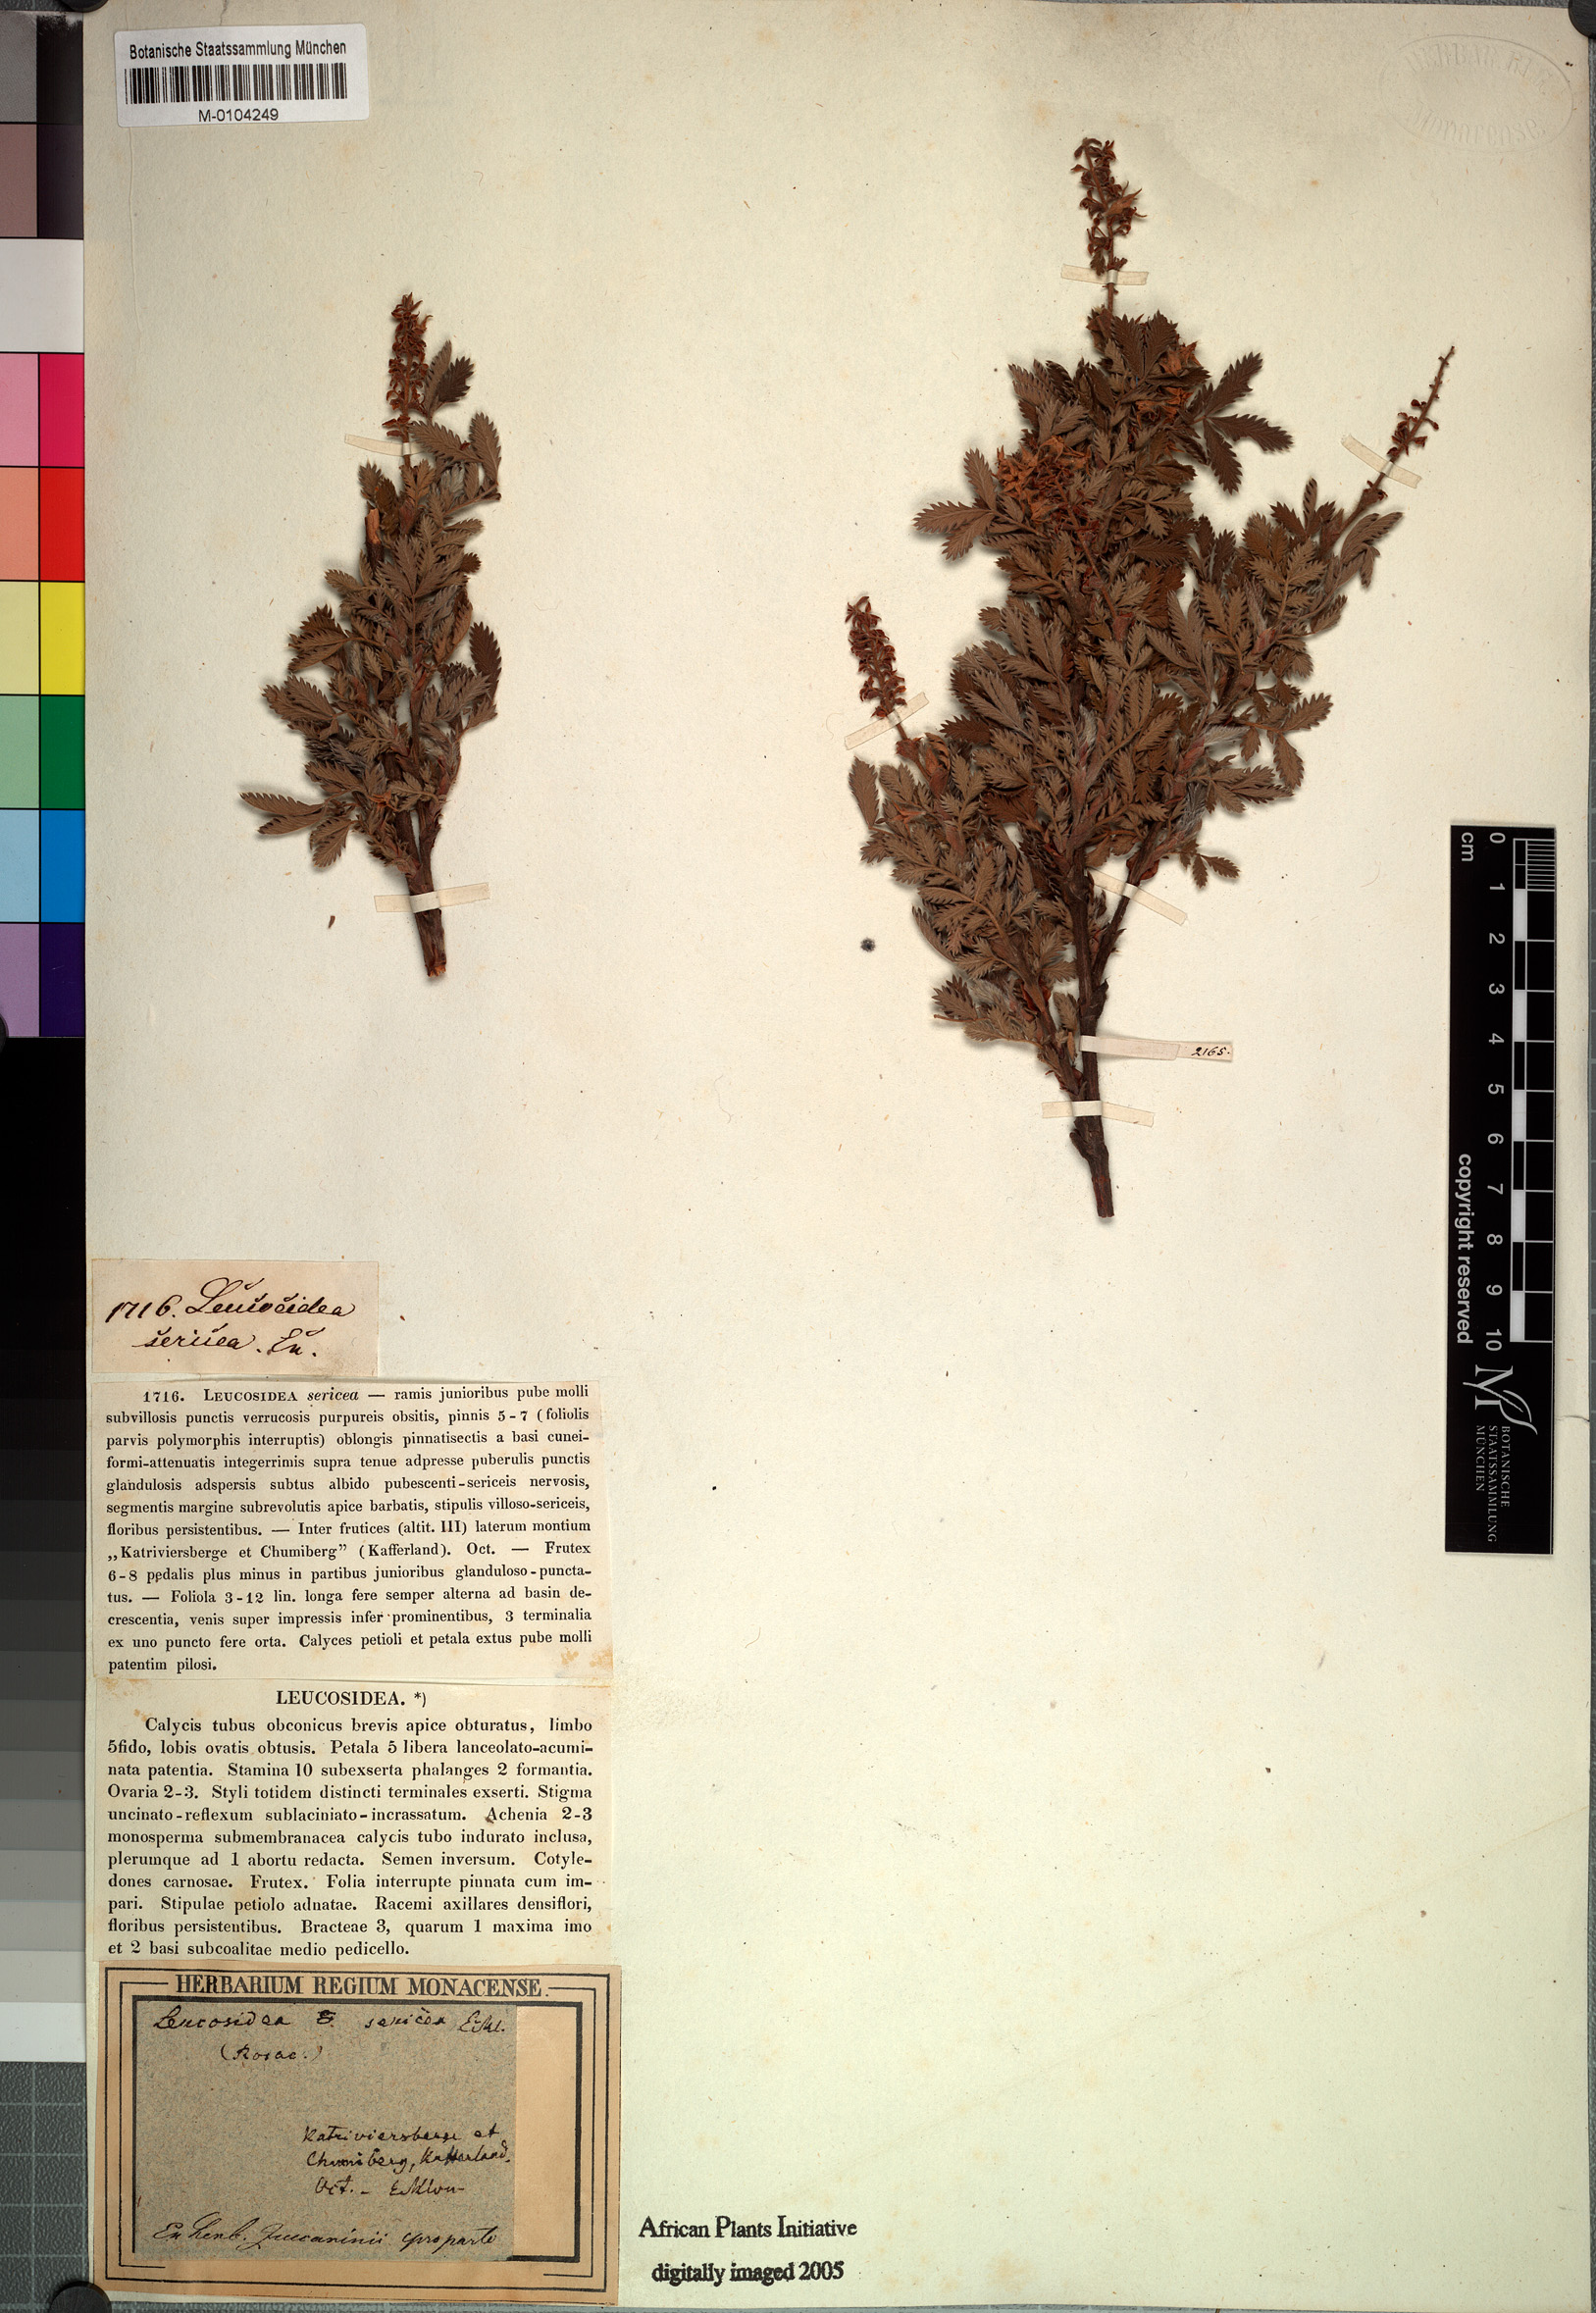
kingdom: Plantae
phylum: Tracheophyta
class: Magnoliopsida
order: Rosales
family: Rosaceae
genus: Leucosidea
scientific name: Leucosidea sericea
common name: Oldwood
